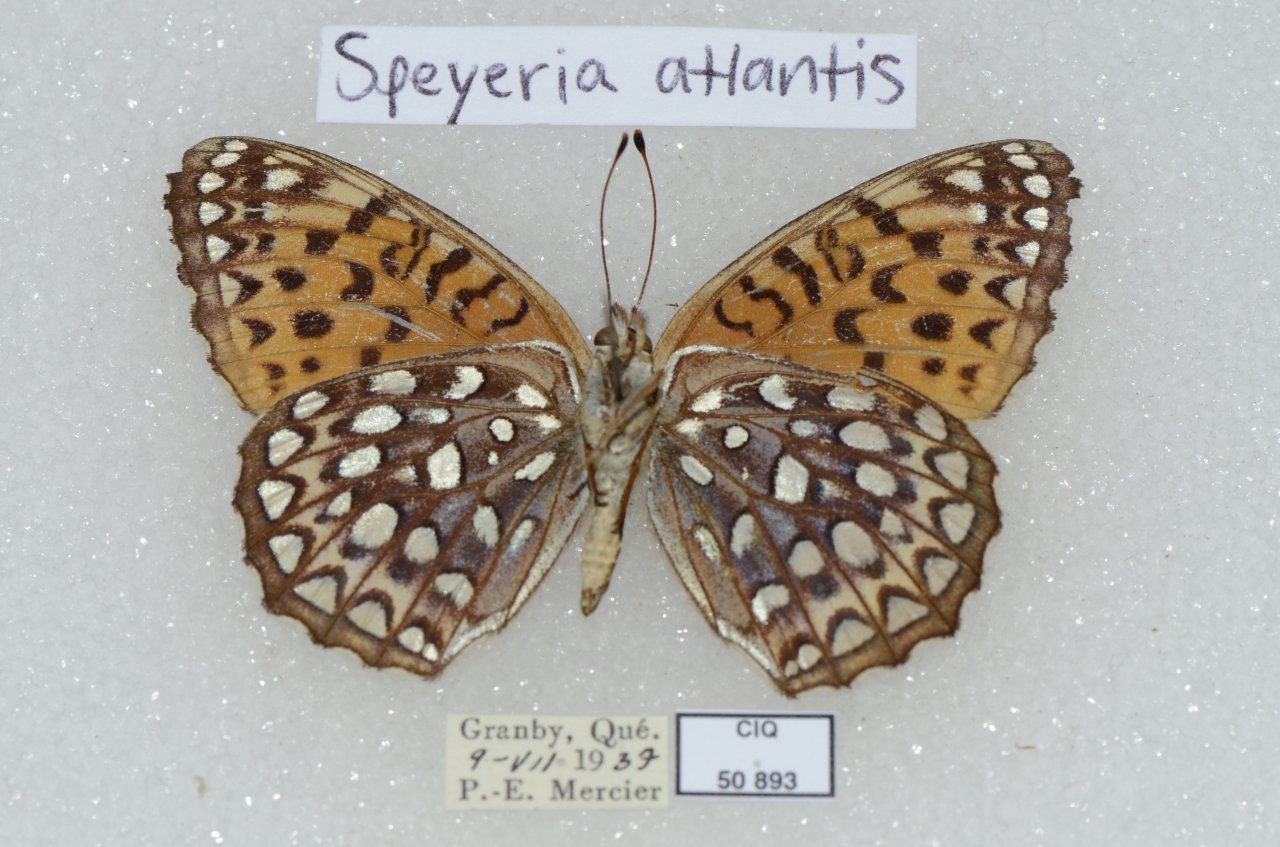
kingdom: Animalia
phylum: Arthropoda
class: Insecta
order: Lepidoptera
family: Nymphalidae
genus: Speyeria
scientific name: Speyeria atlantis
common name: Atlantis Fritillary
